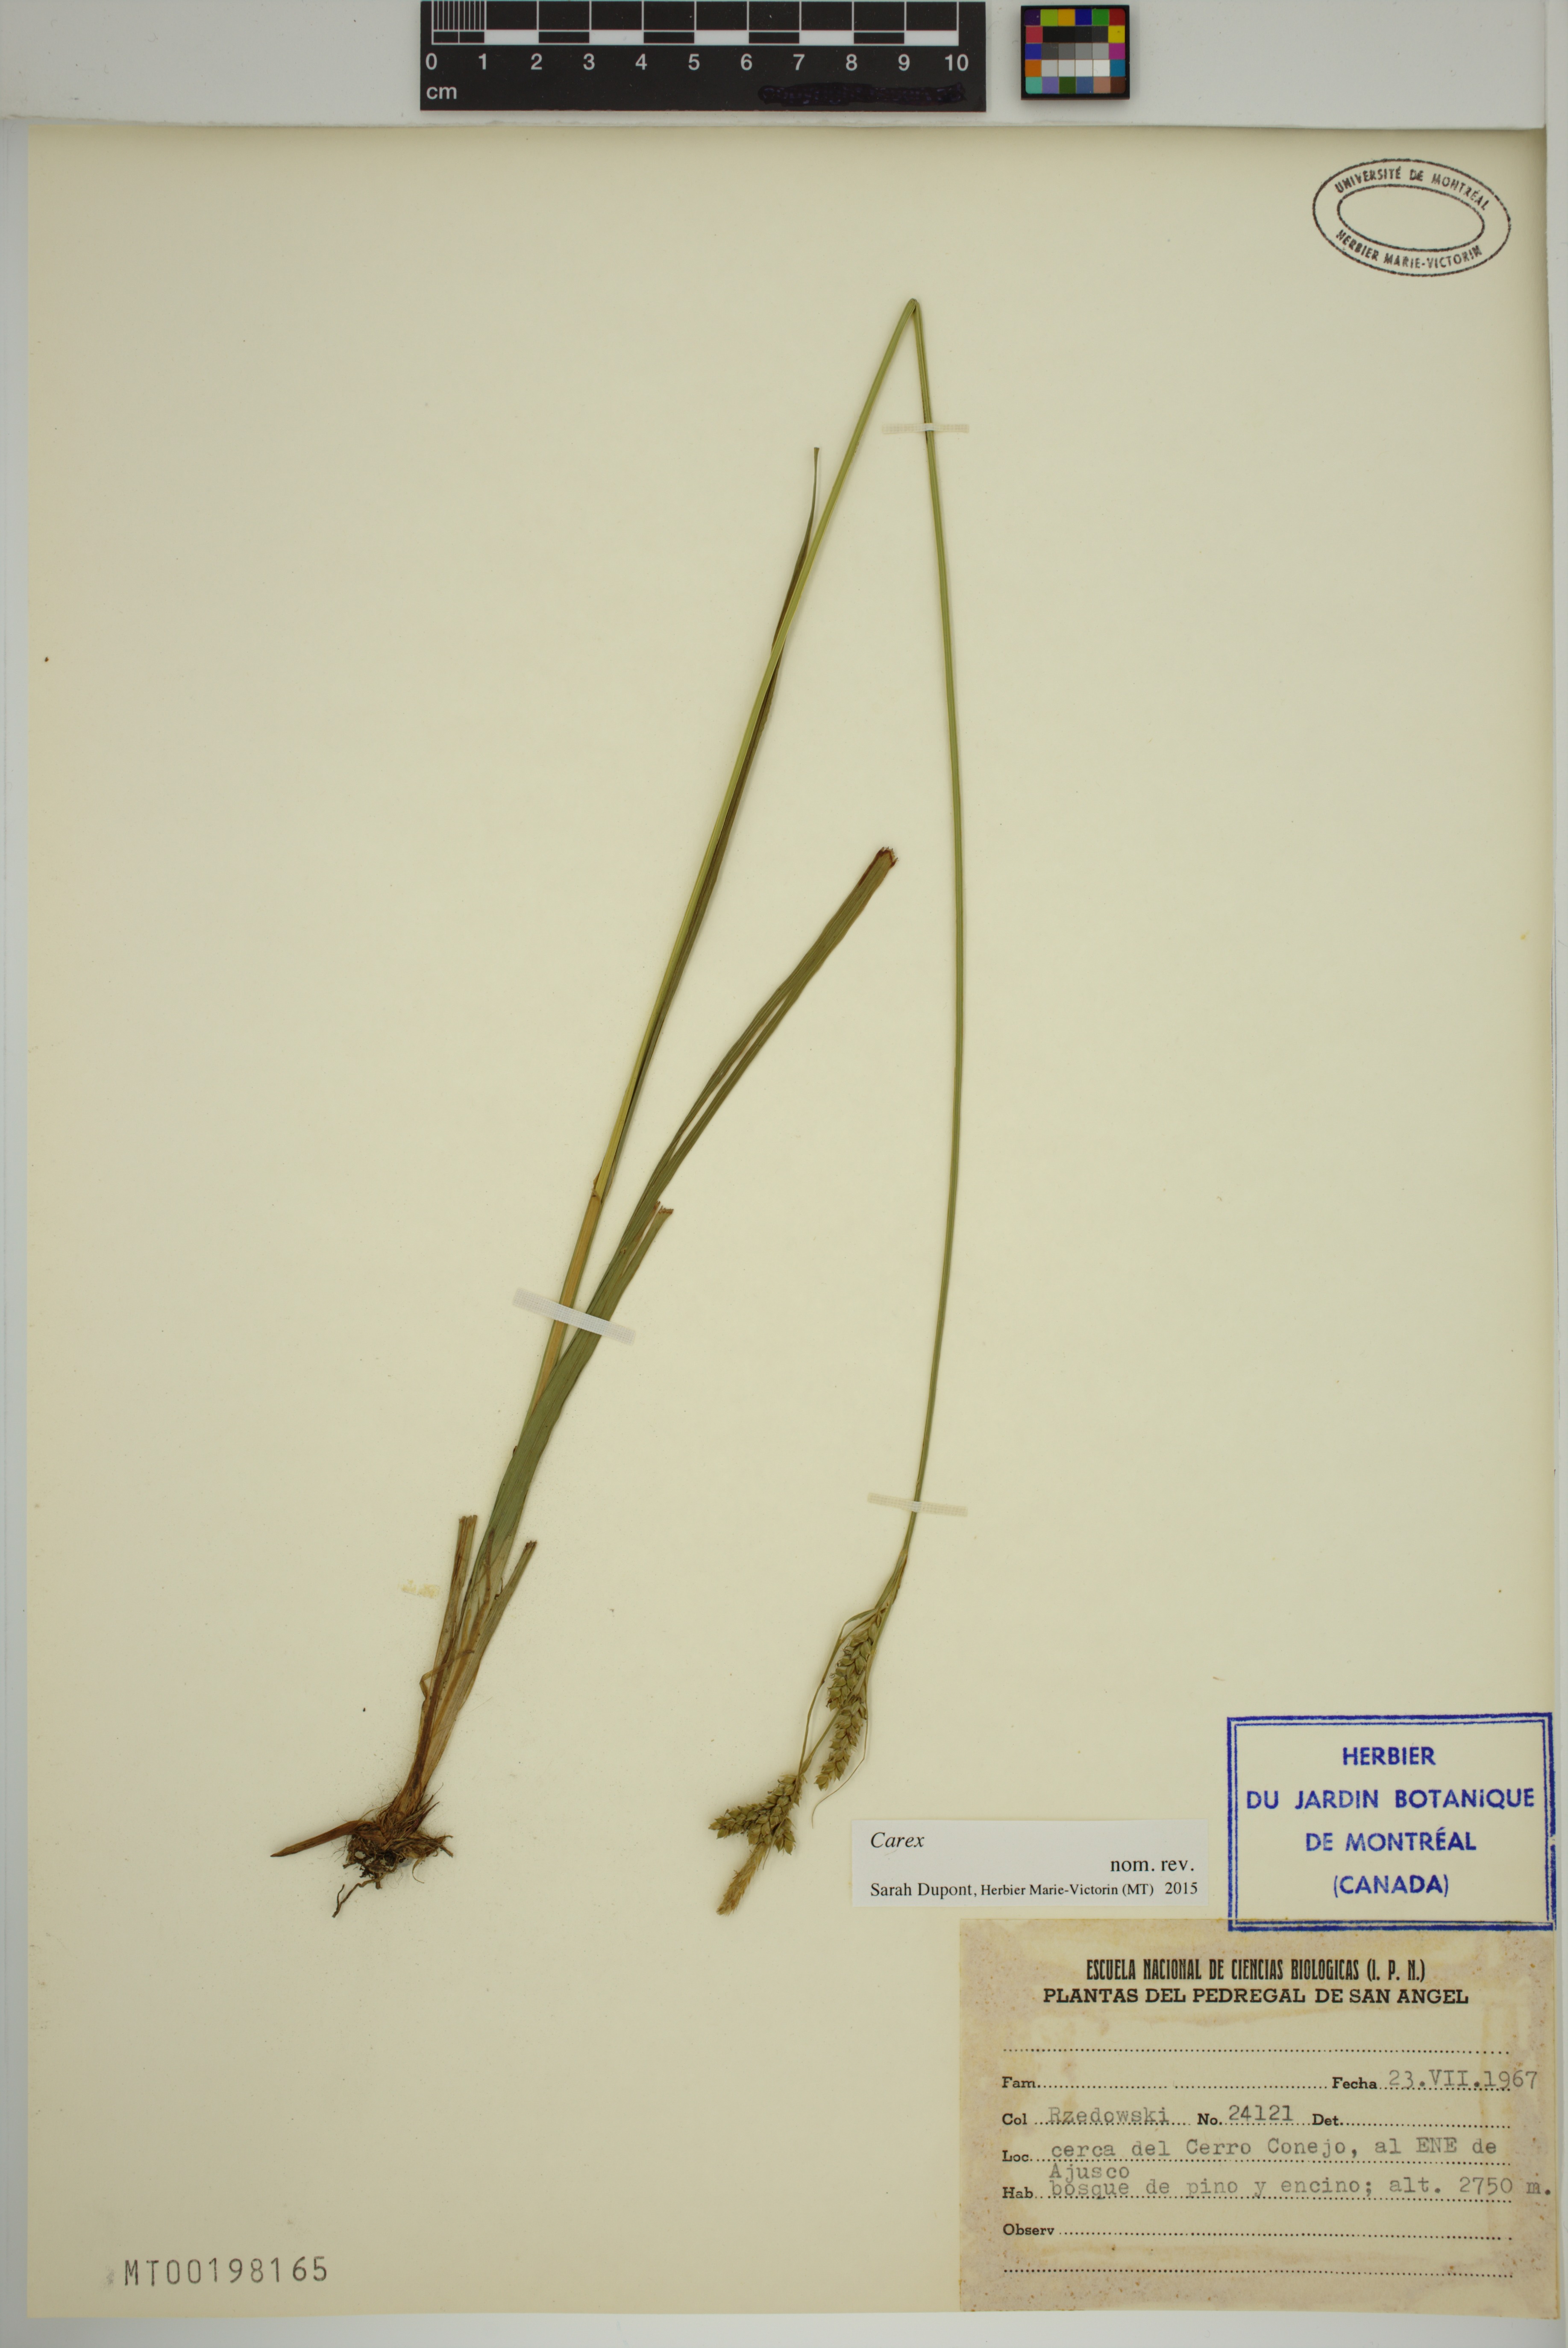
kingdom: Plantae
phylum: Tracheophyta
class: Liliopsida
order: Poales
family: Cyperaceae
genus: Carex
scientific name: Carex
